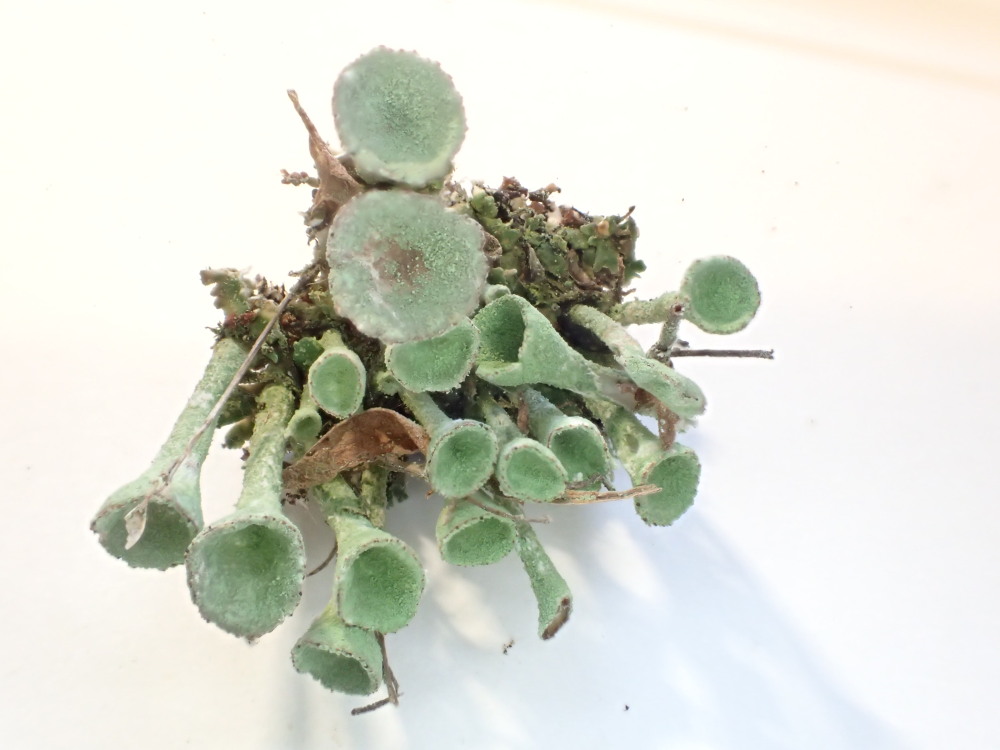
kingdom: Fungi
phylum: Ascomycota
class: Lecanoromycetes
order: Lecanorales
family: Cladoniaceae
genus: Cladonia
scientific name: Cladonia fimbriata
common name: bleggrøn bægerlav
